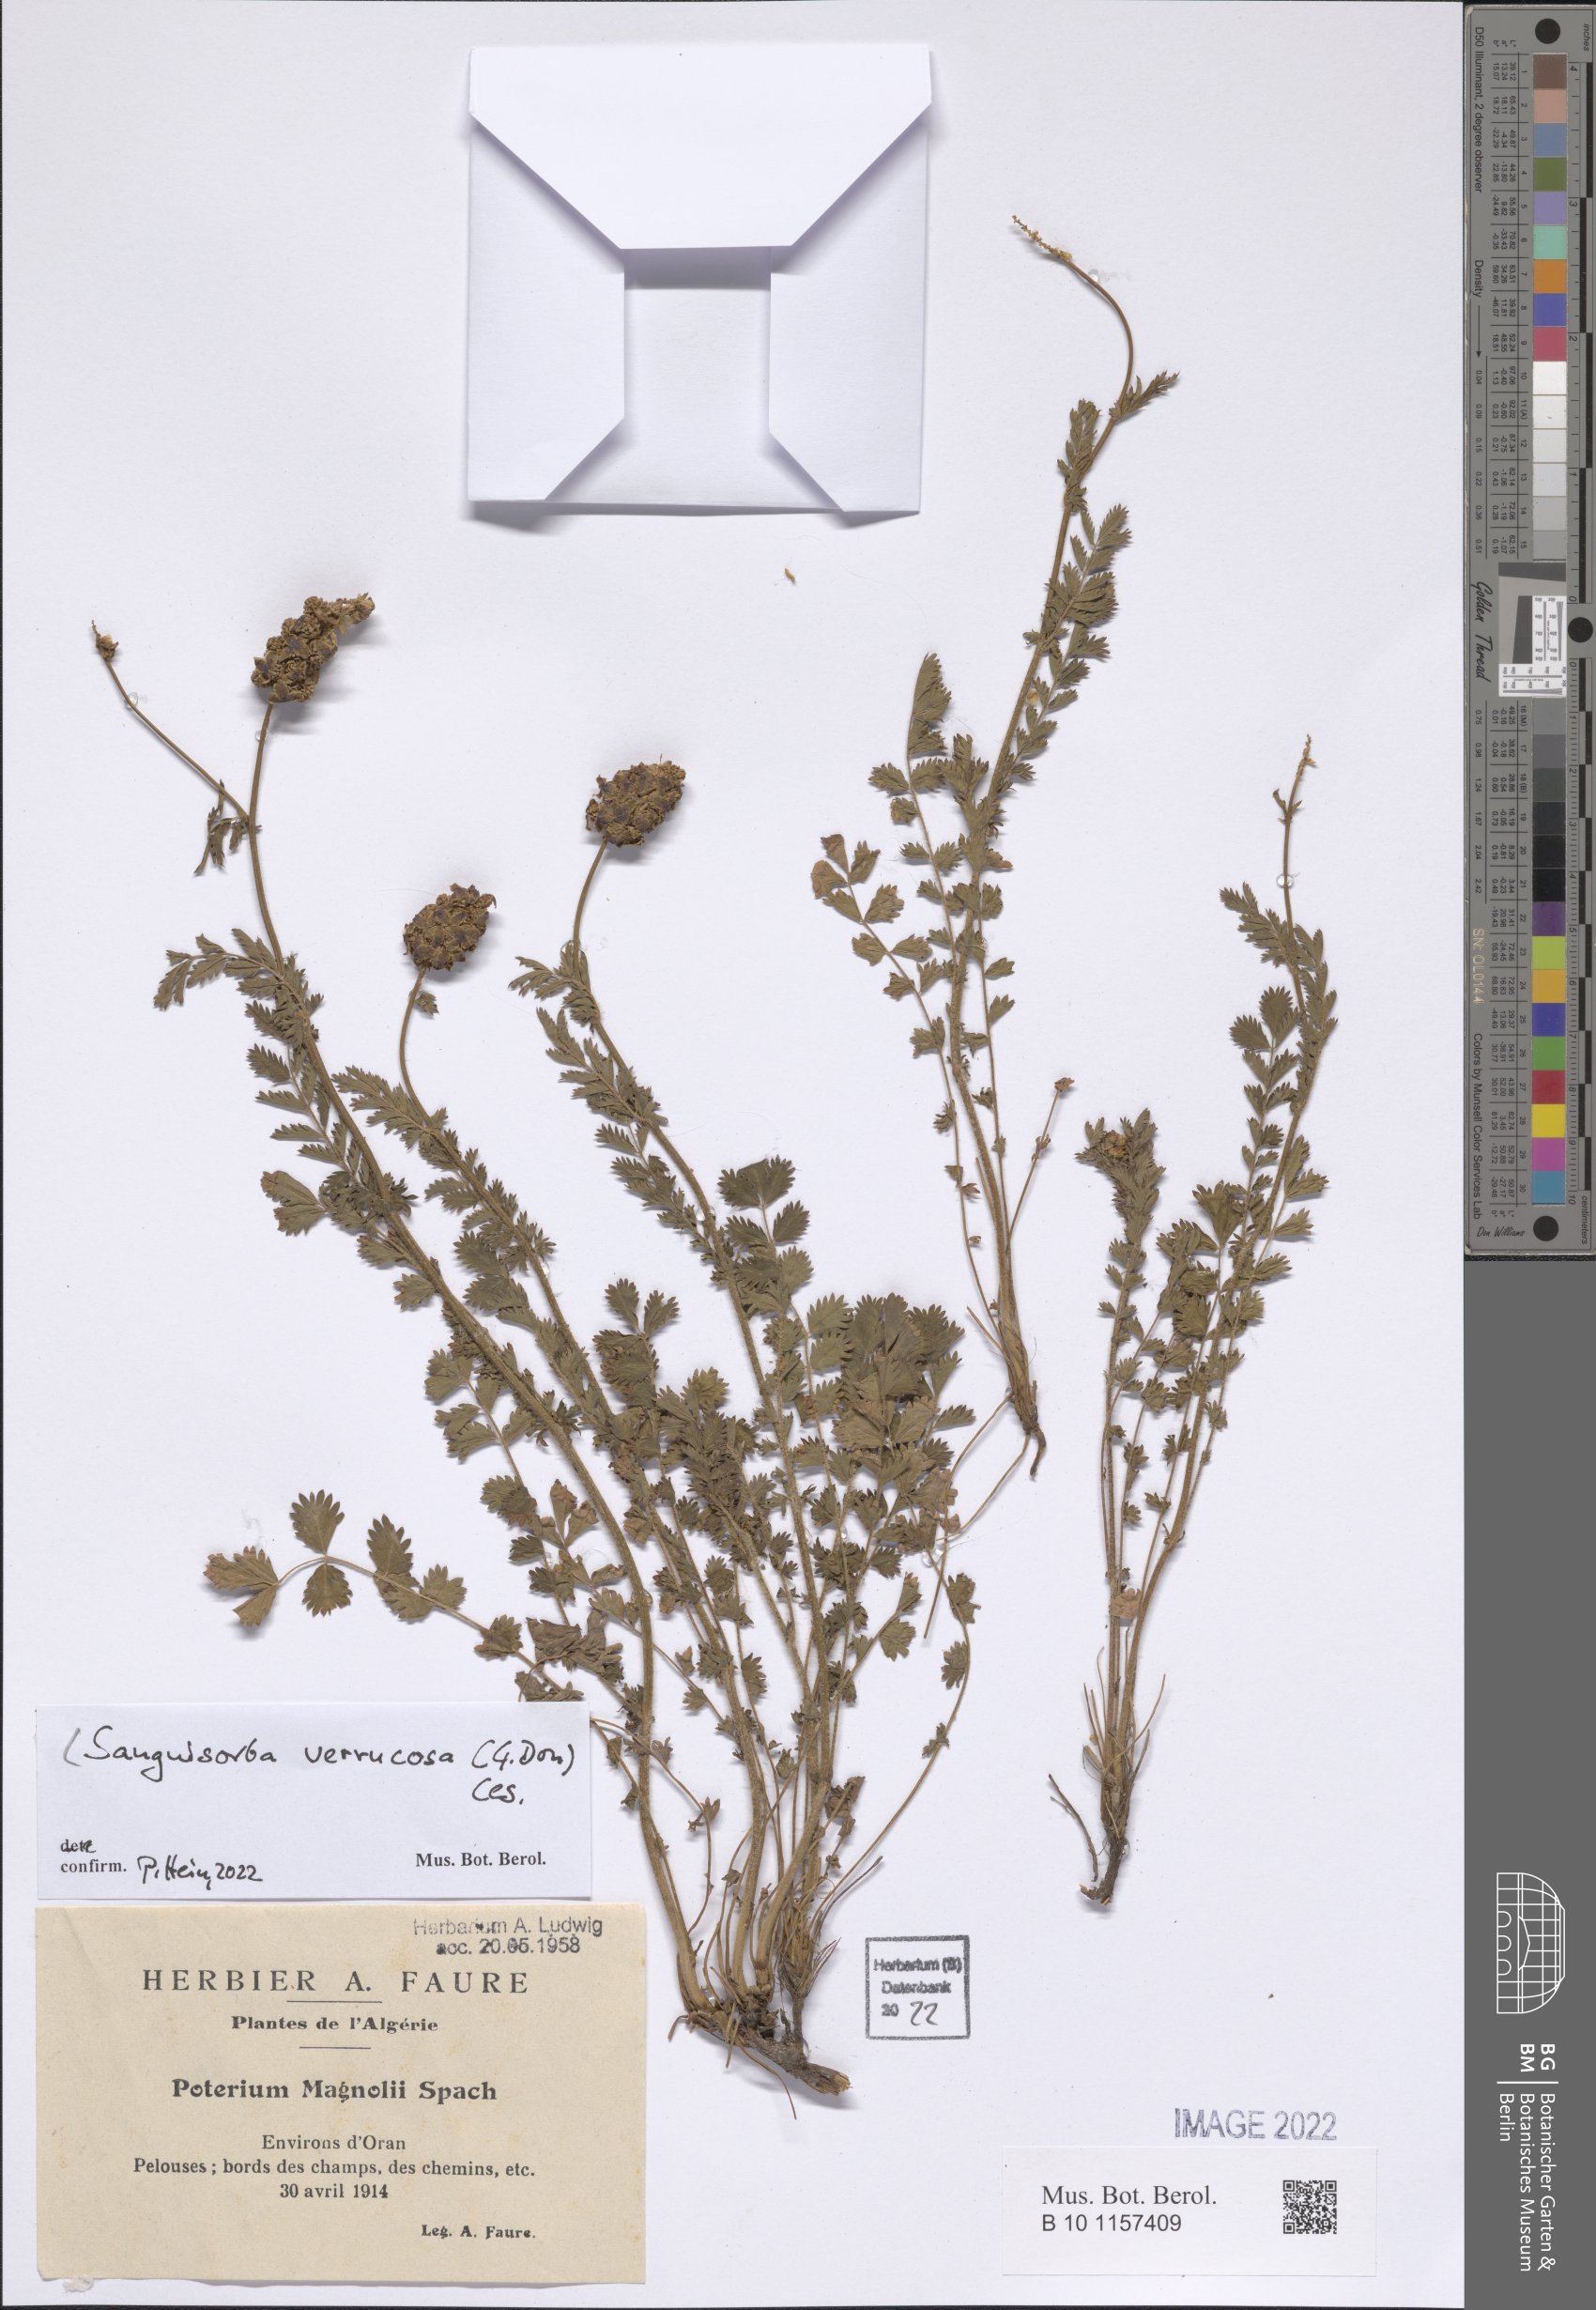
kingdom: Plantae
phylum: Tracheophyta
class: Magnoliopsida
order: Rosales
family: Rosaceae
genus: Poterium
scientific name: Poterium verrucosum
